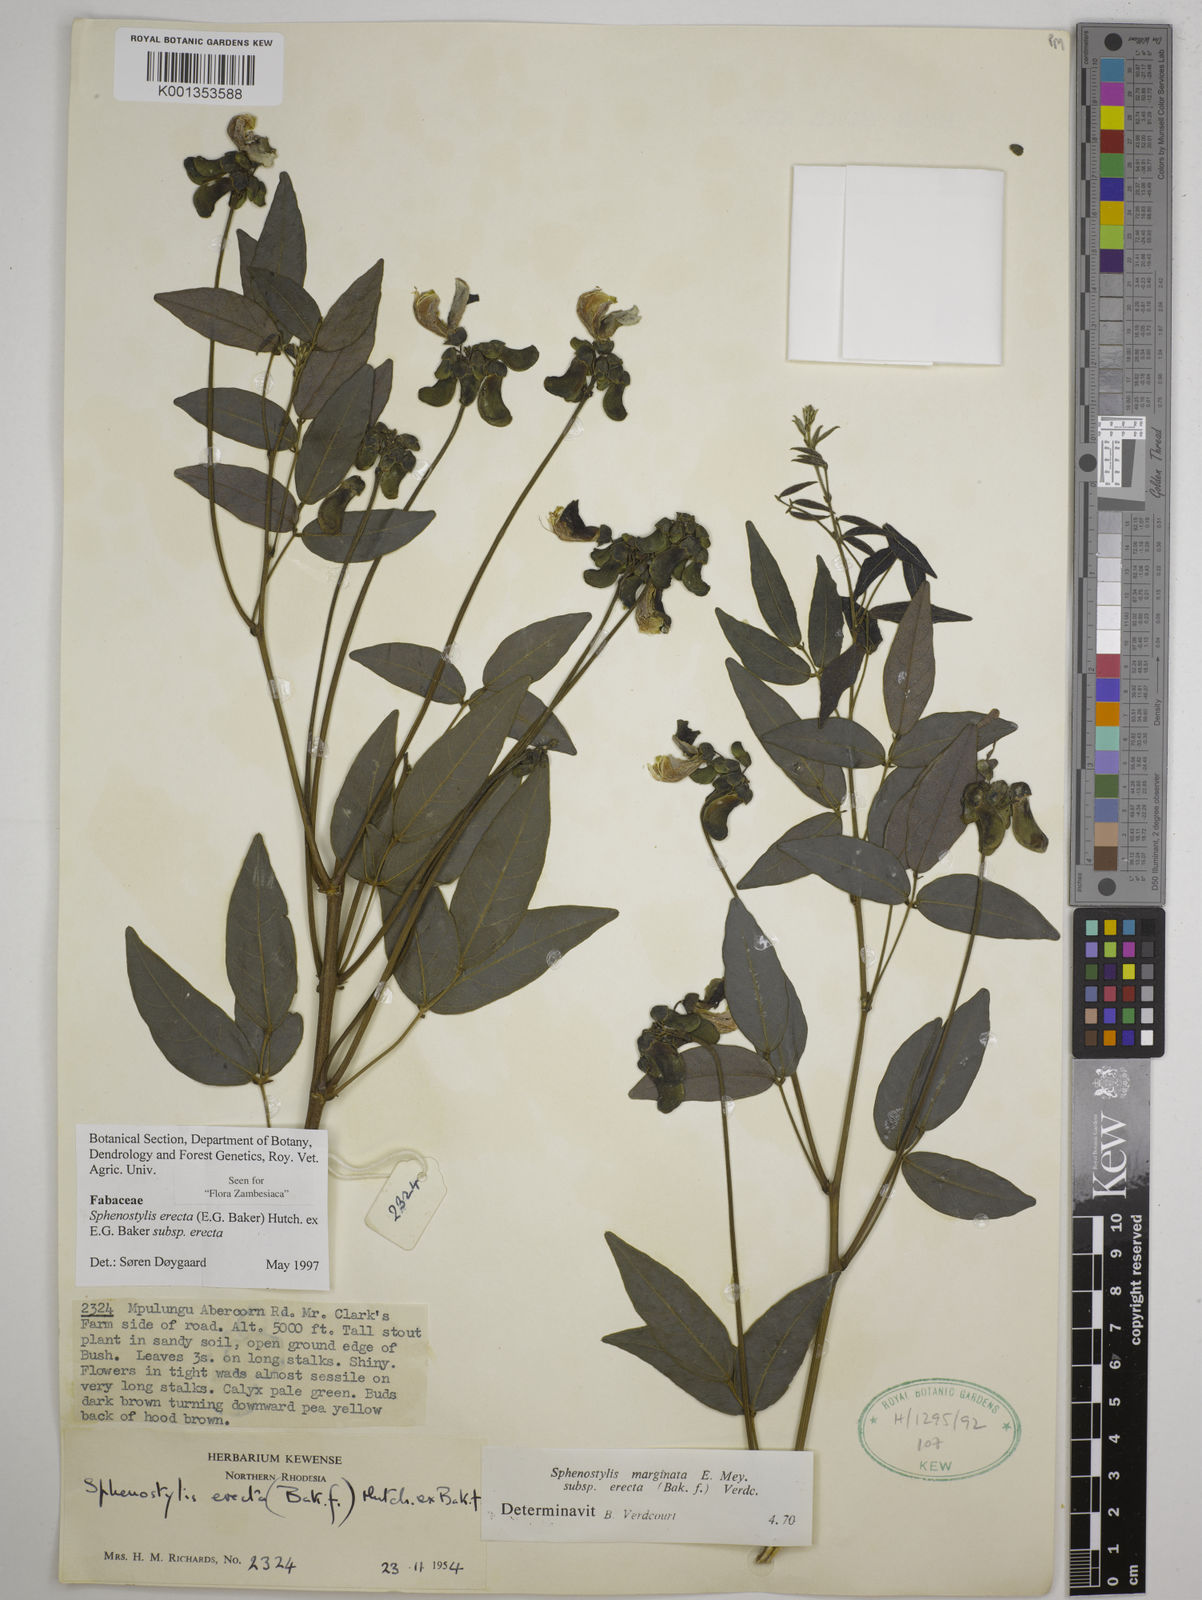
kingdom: Plantae
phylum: Tracheophyta
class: Magnoliopsida
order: Fabales
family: Fabaceae
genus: Sphenostylis
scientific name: Sphenostylis erecta
